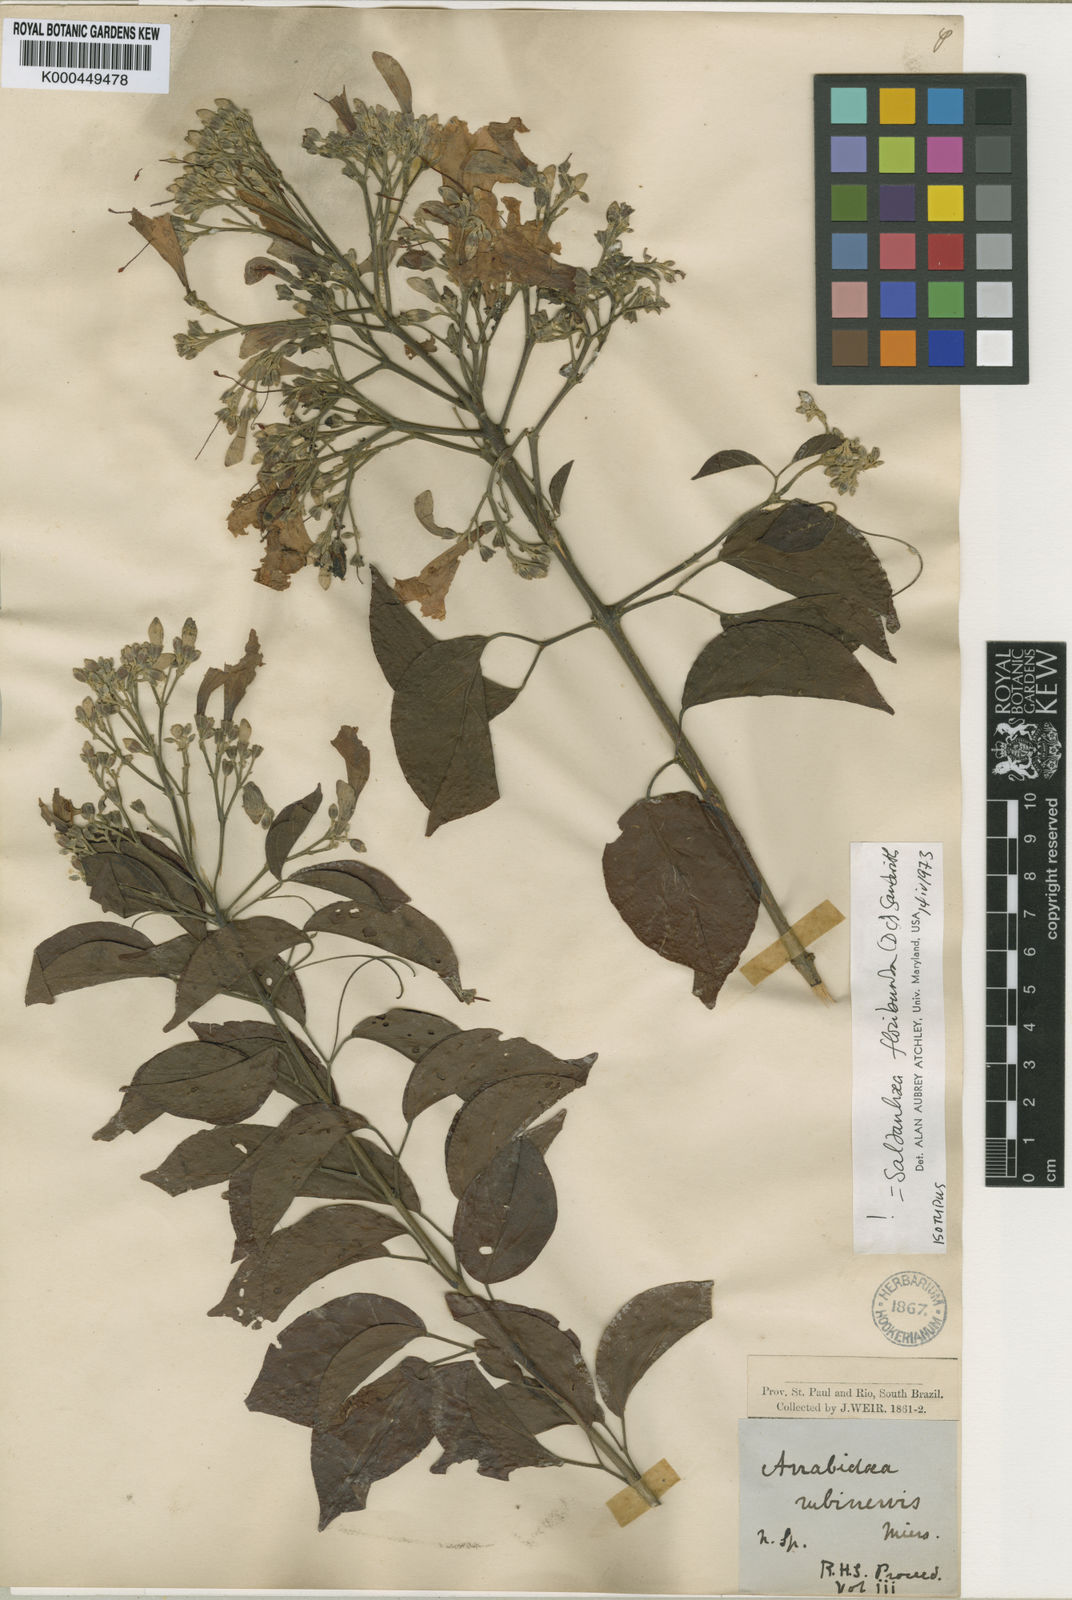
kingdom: Plantae
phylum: Tracheophyta
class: Magnoliopsida
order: Lamiales
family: Bignoniaceae
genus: Cuspidaria
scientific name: Cuspidaria floribunda
